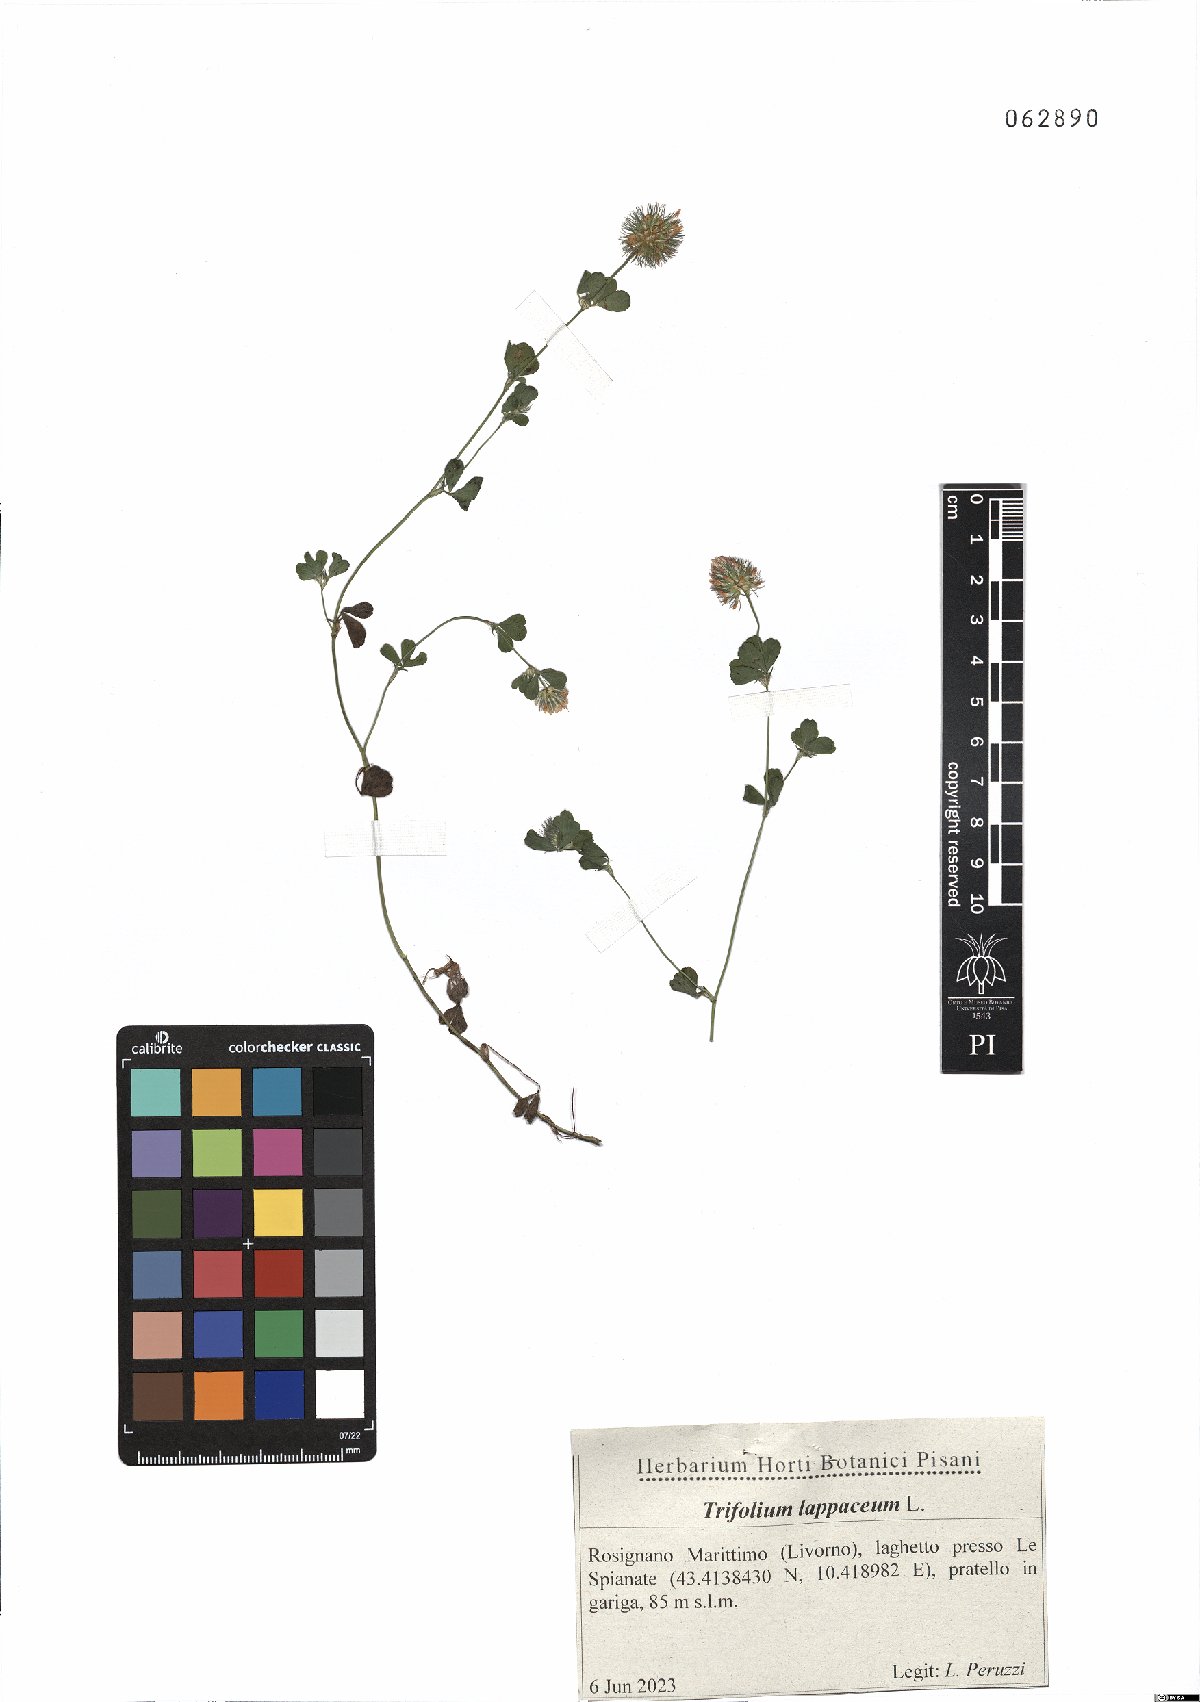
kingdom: Plantae
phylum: Tracheophyta
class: Magnoliopsida
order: Fabales
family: Fabaceae
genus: Trifolium
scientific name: Trifolium lappaceum
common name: Bur clover
